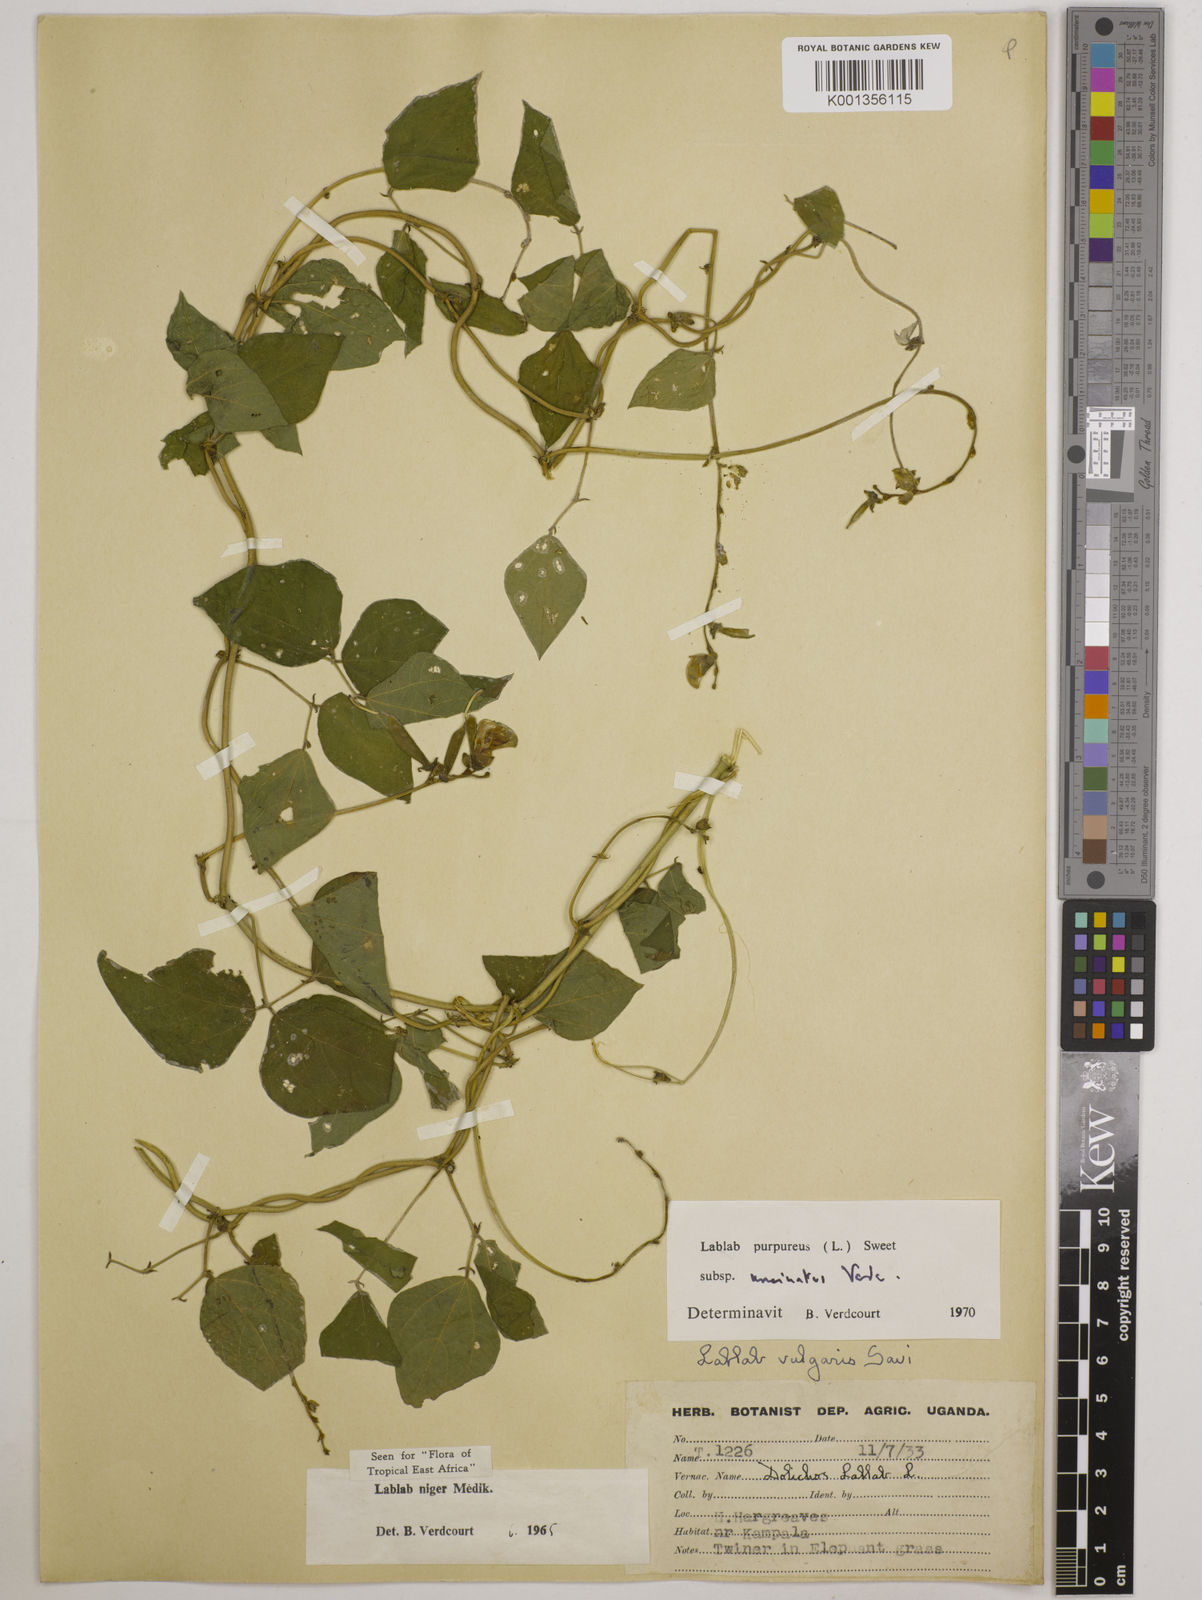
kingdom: Plantae
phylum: Tracheophyta
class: Magnoliopsida
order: Fabales
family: Fabaceae
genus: Lablab
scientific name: Lablab purpureus
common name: Lablab-bean
